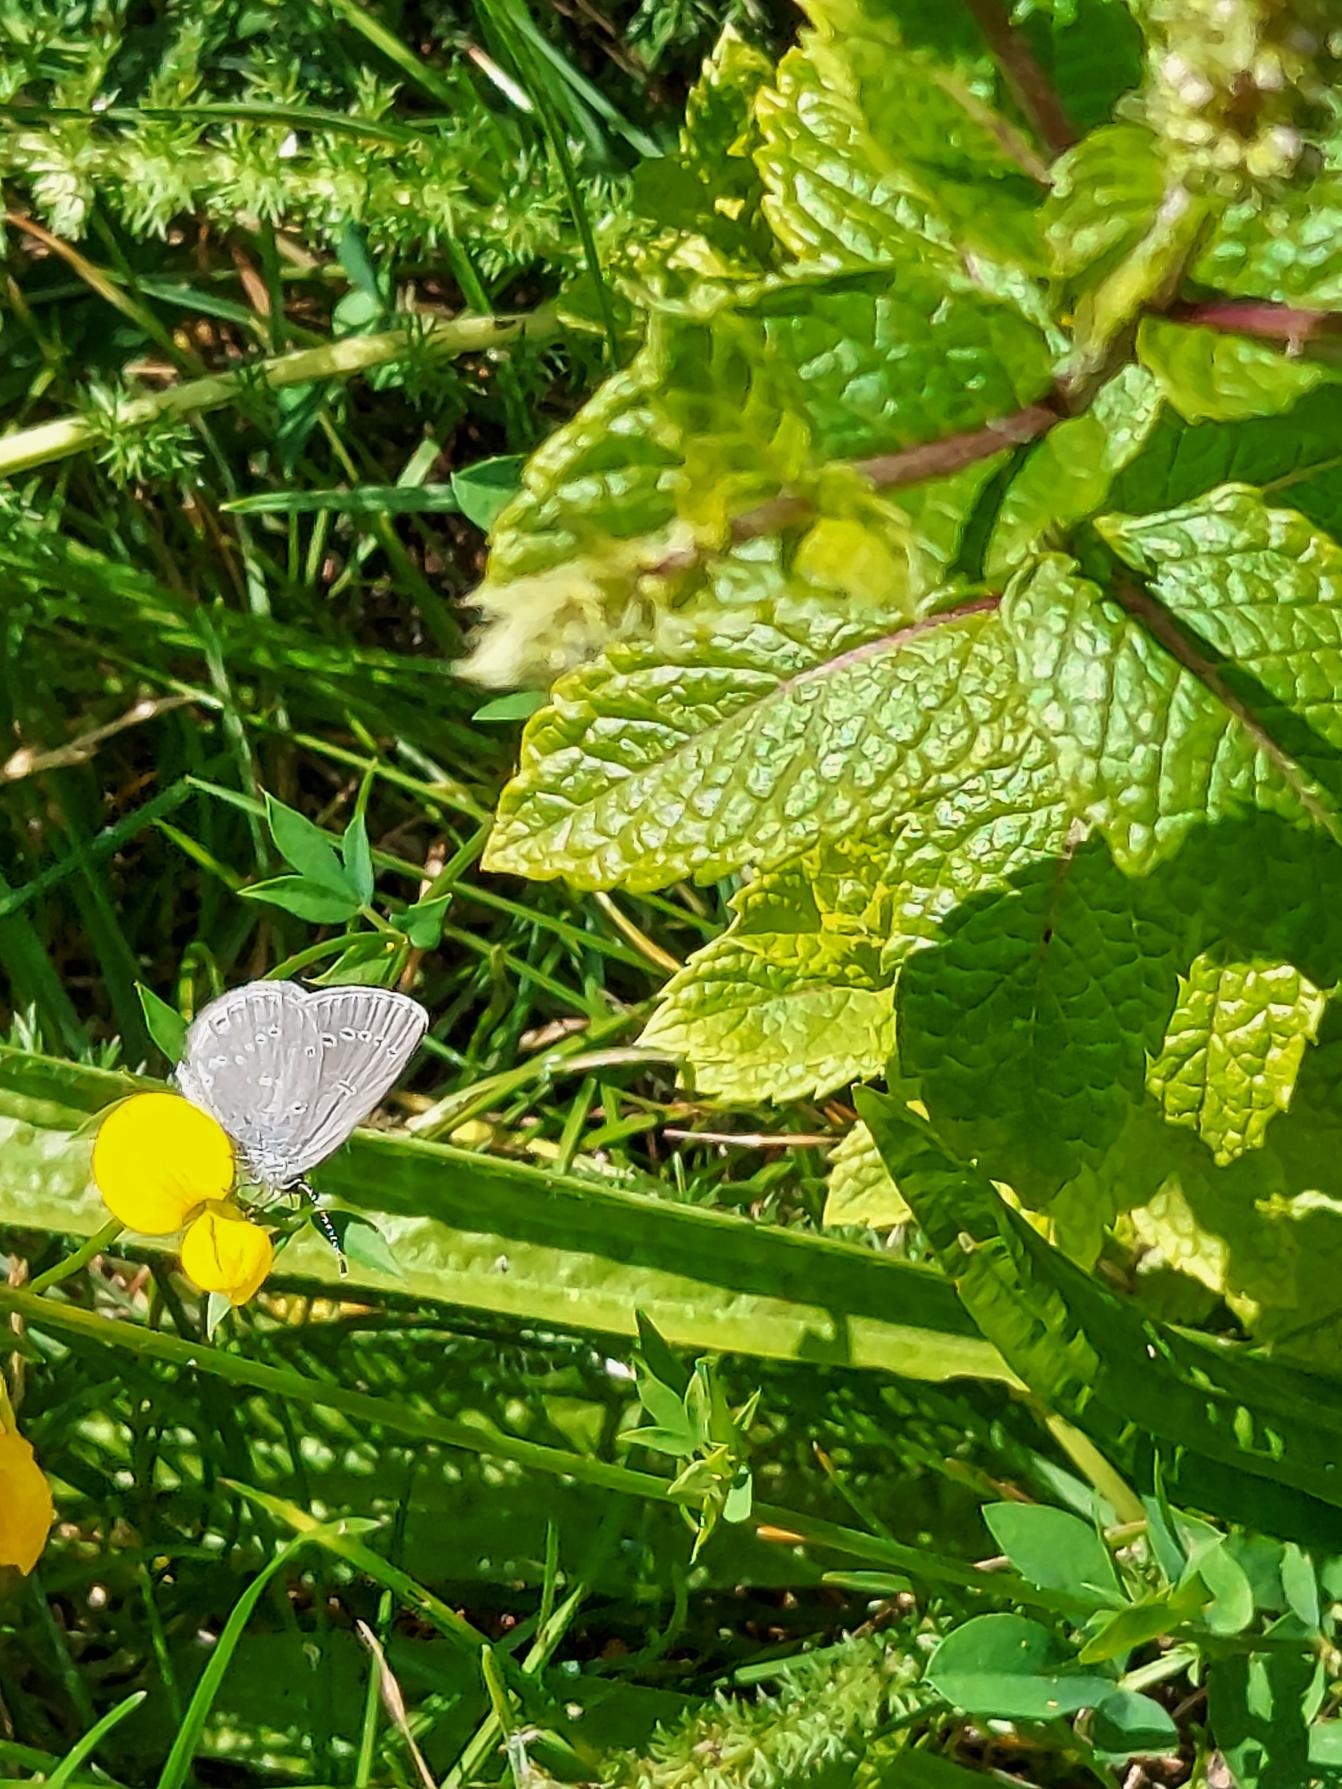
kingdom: Animalia
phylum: Arthropoda
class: Insecta
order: Lepidoptera
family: Lycaenidae
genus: Cupido
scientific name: Cupido minimus
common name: Dværgblåfugl
